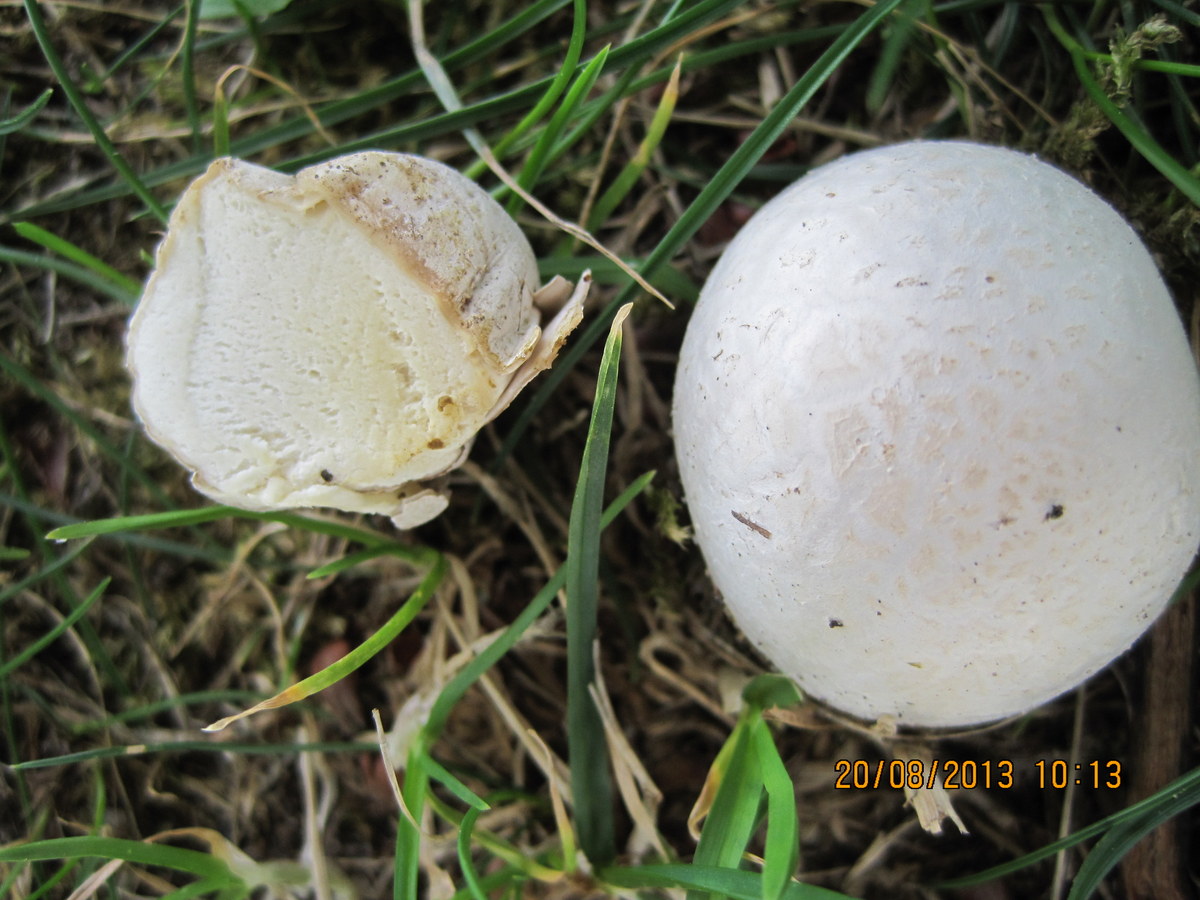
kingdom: Fungi
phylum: Basidiomycota
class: Agaricomycetes
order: Agaricales
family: Lycoperdaceae
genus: Bovista
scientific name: Bovista plumbea
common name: blygrå bovist
